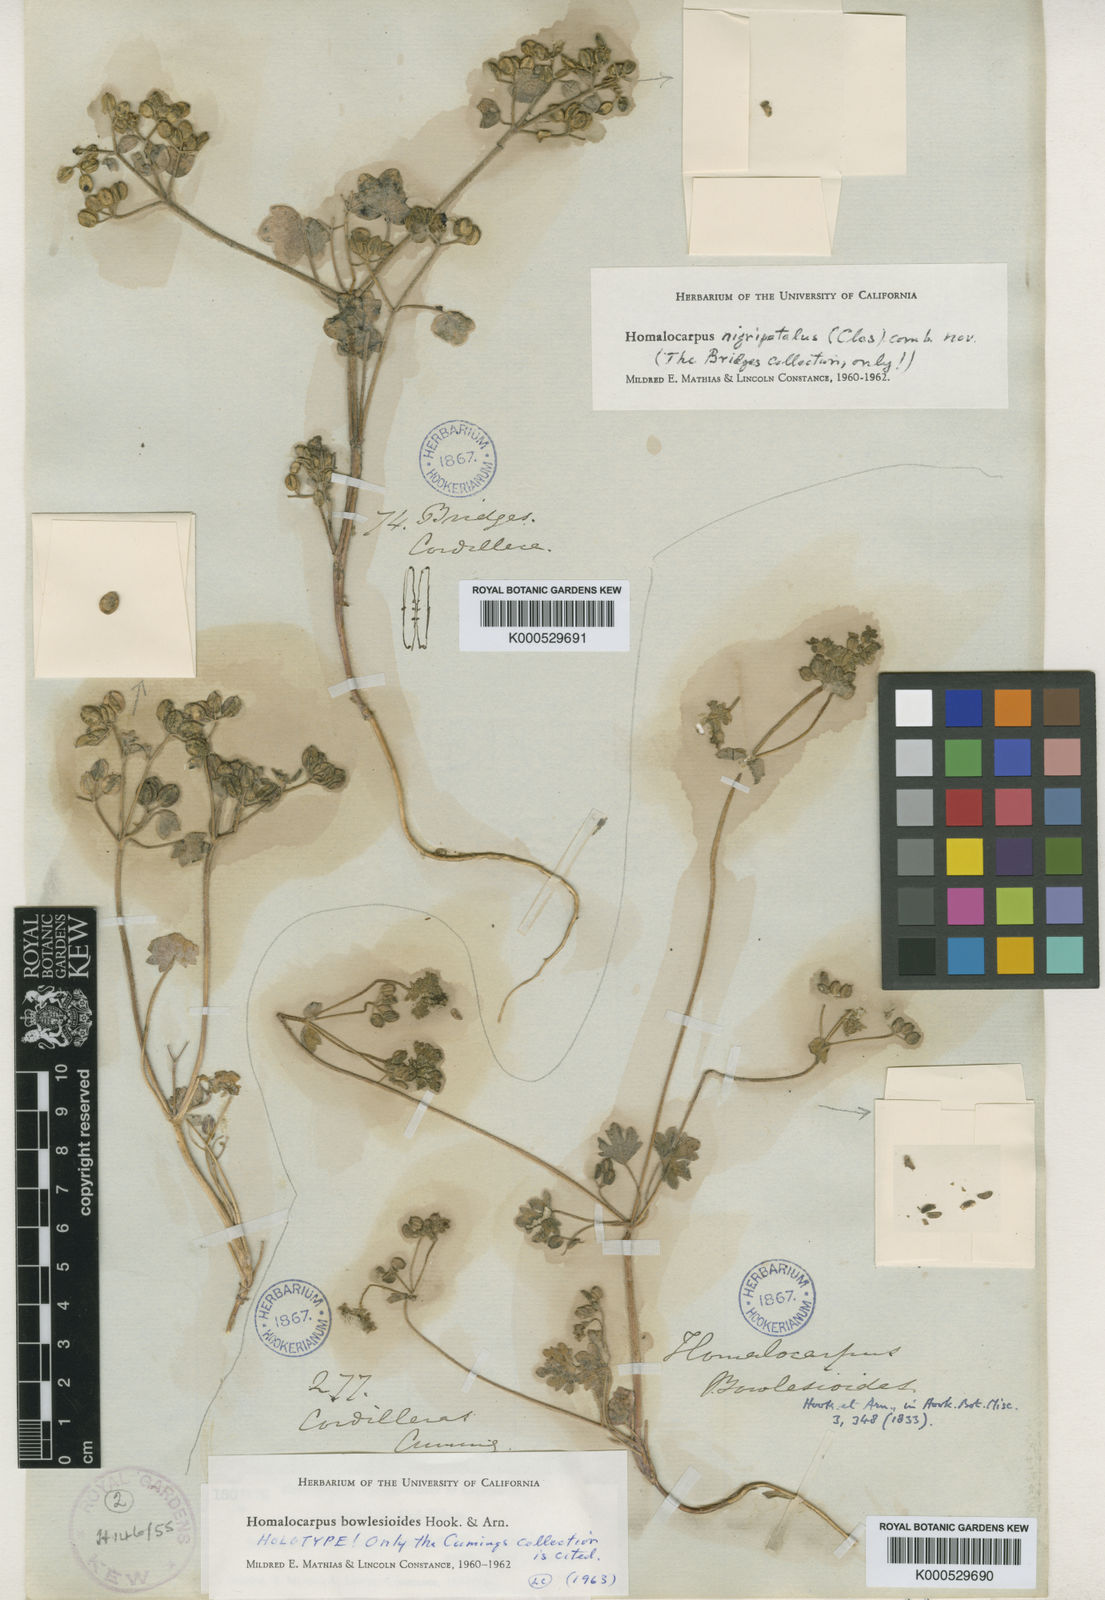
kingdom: Plantae
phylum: Tracheophyta
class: Magnoliopsida
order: Apiales
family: Apiaceae
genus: Homalocarpus
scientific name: Homalocarpus nigripetalus
